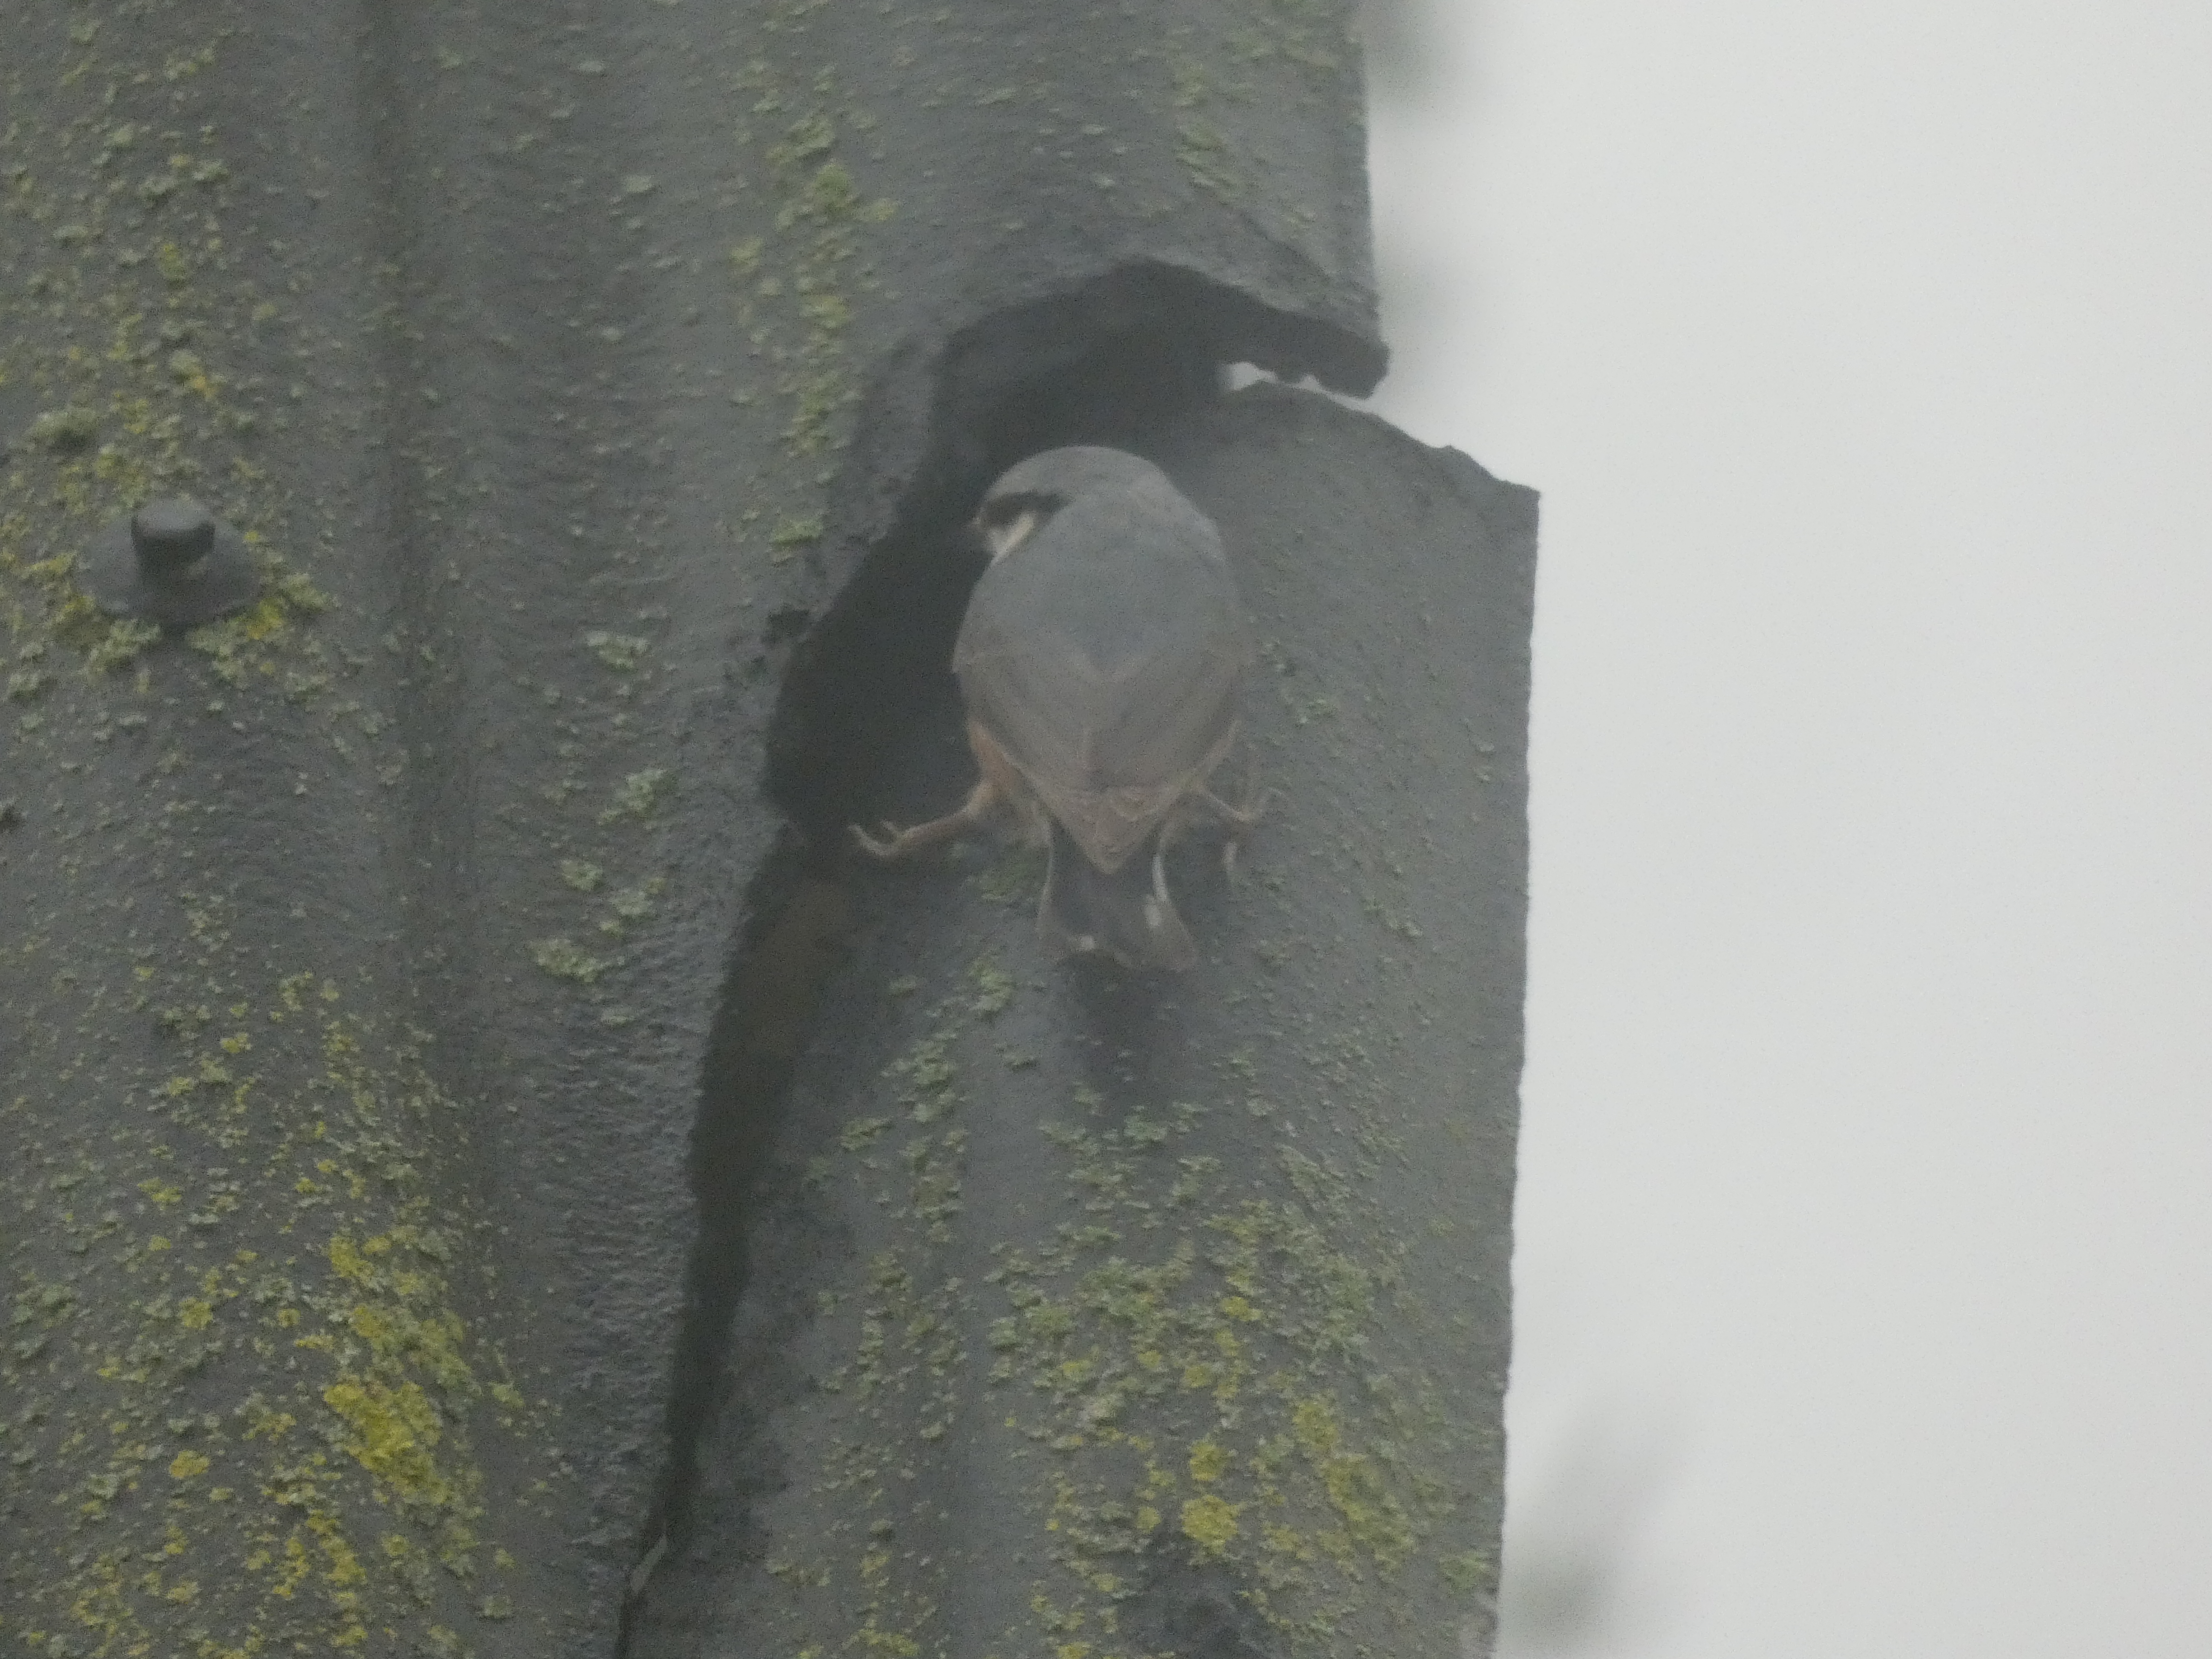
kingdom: Animalia
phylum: Chordata
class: Aves
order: Passeriformes
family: Sittidae
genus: Sitta
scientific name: Sitta europaea
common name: Spætmejse
